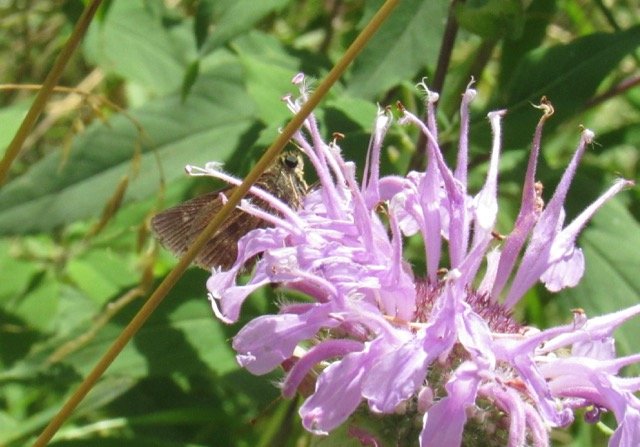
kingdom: Animalia
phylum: Arthropoda
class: Insecta
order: Lepidoptera
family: Hesperiidae
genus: Polites
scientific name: Polites egeremet
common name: Northern Broken-Dash
